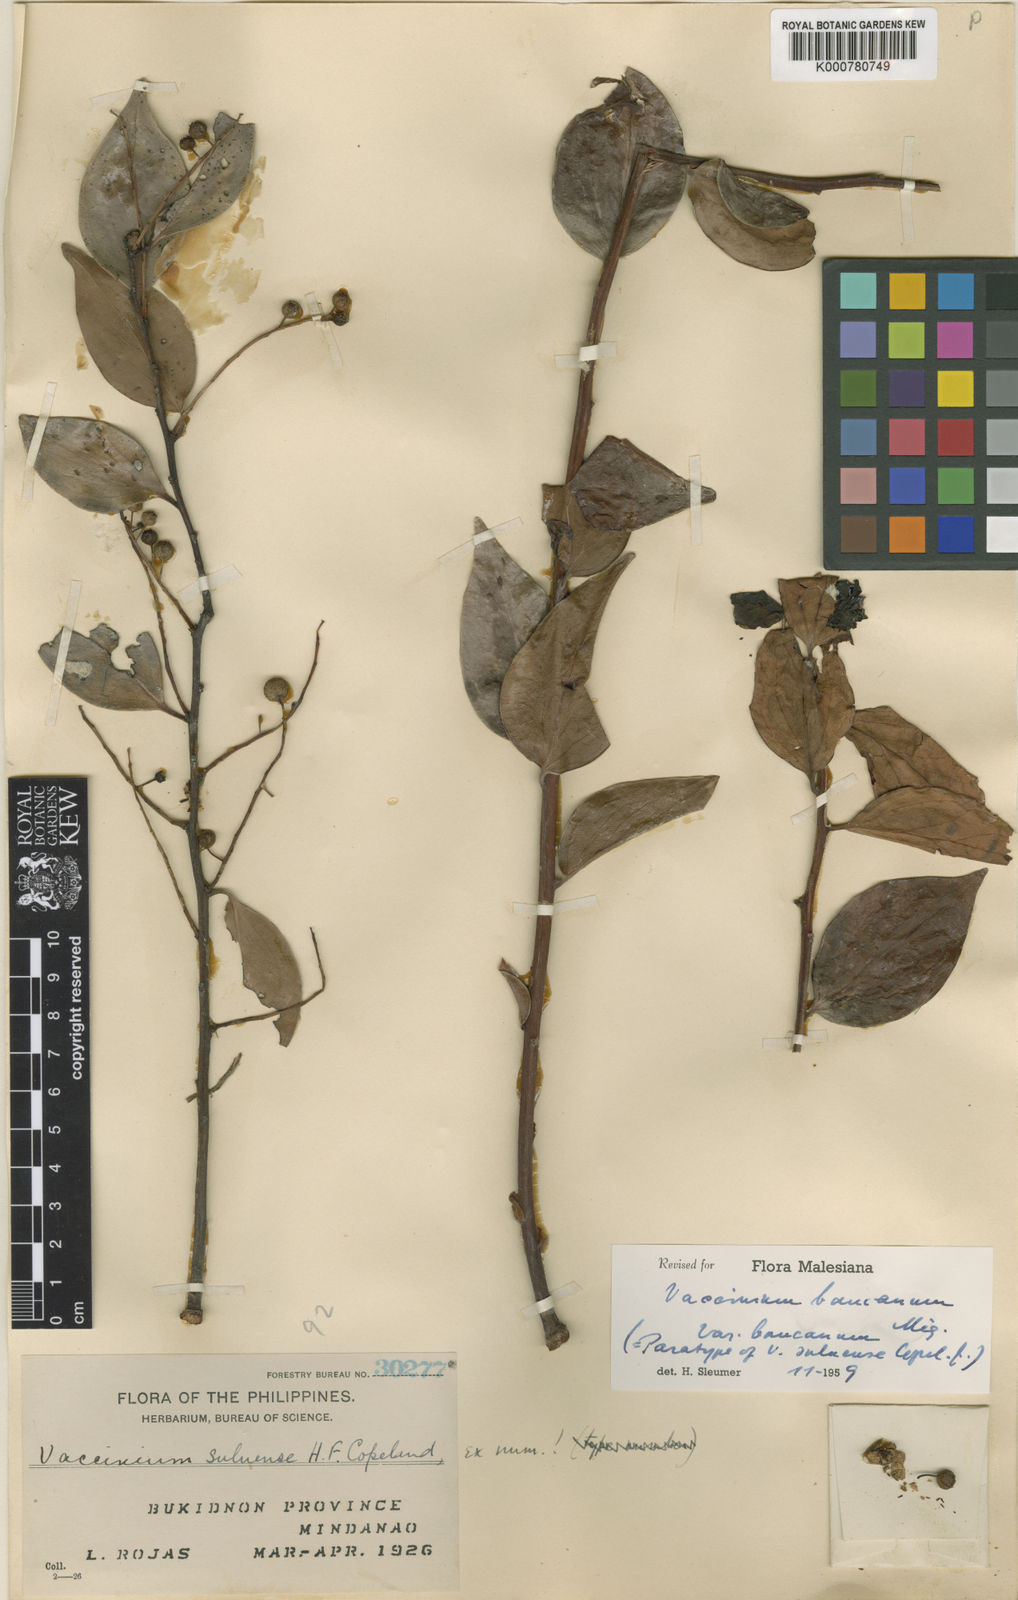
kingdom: Plantae
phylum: Tracheophyta
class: Magnoliopsida
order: Ericales
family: Ericaceae
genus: Vaccinium
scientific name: Vaccinium bancanum
